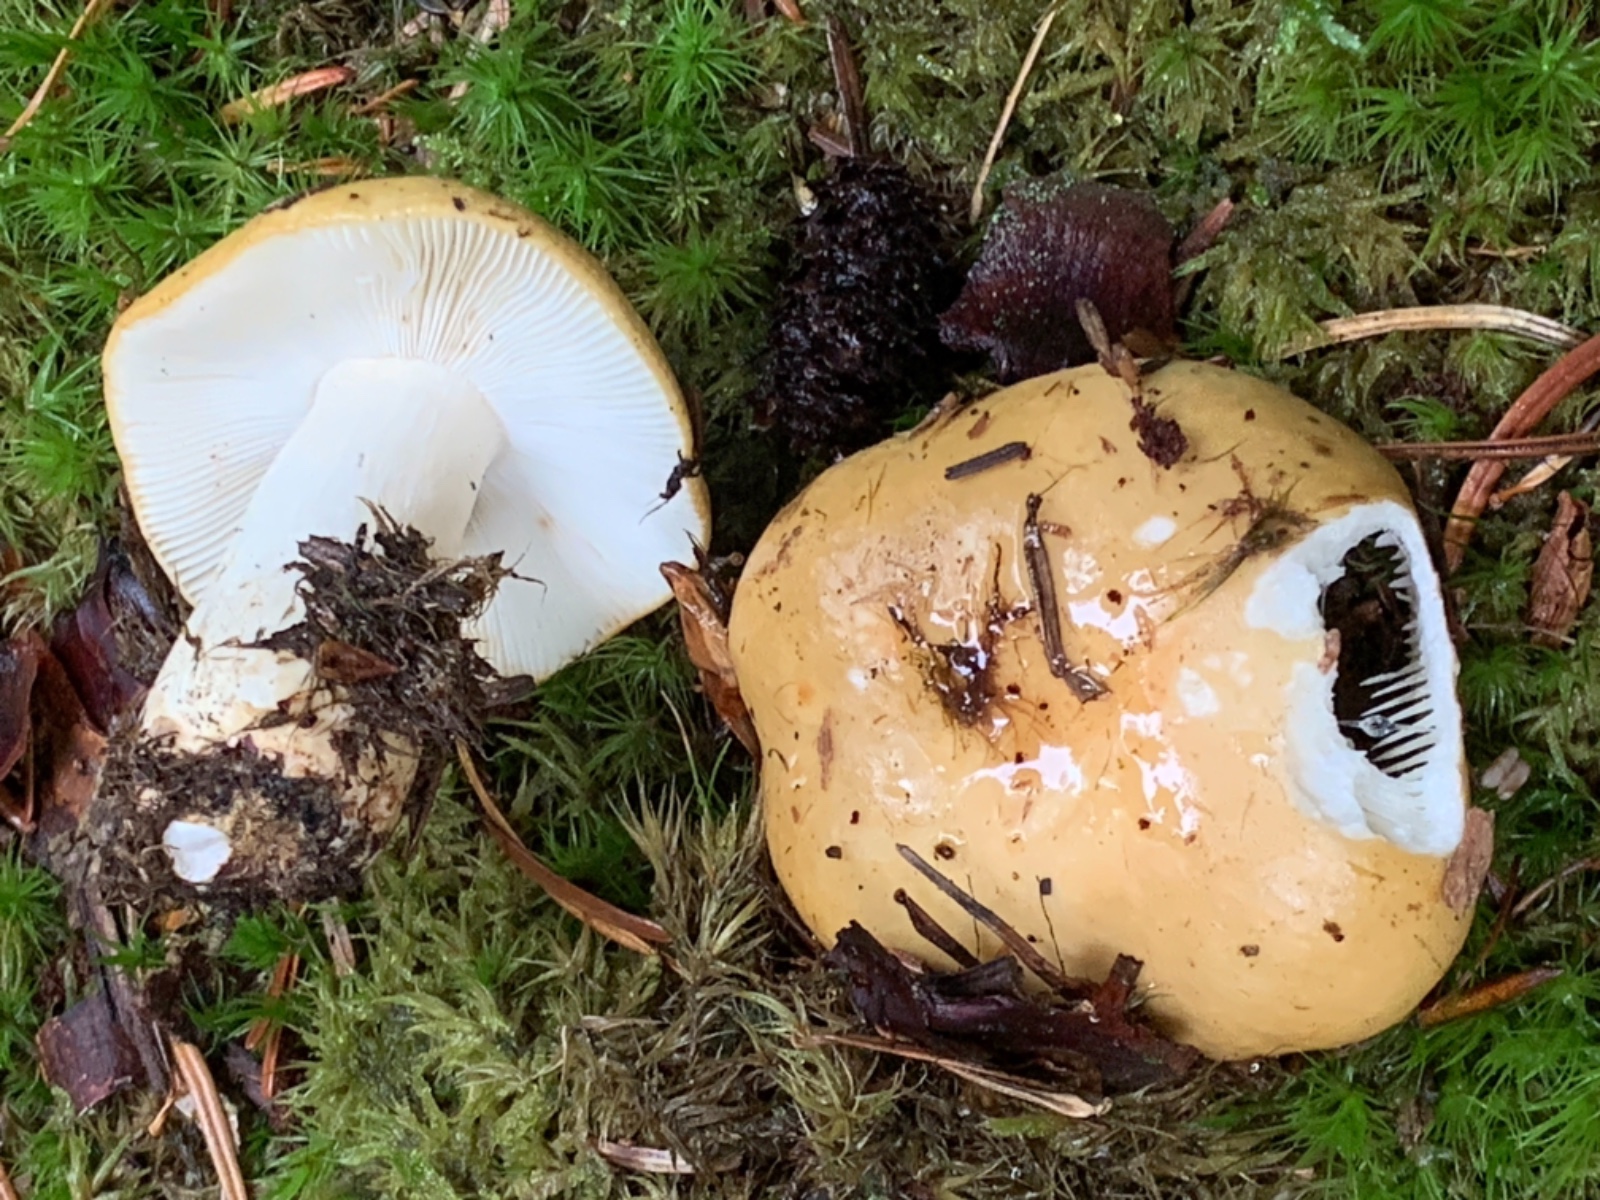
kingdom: Fungi
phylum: Basidiomycota
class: Agaricomycetes
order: Russulales
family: Russulaceae
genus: Russula
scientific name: Russula ochroleuca
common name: okkergul skørhat
